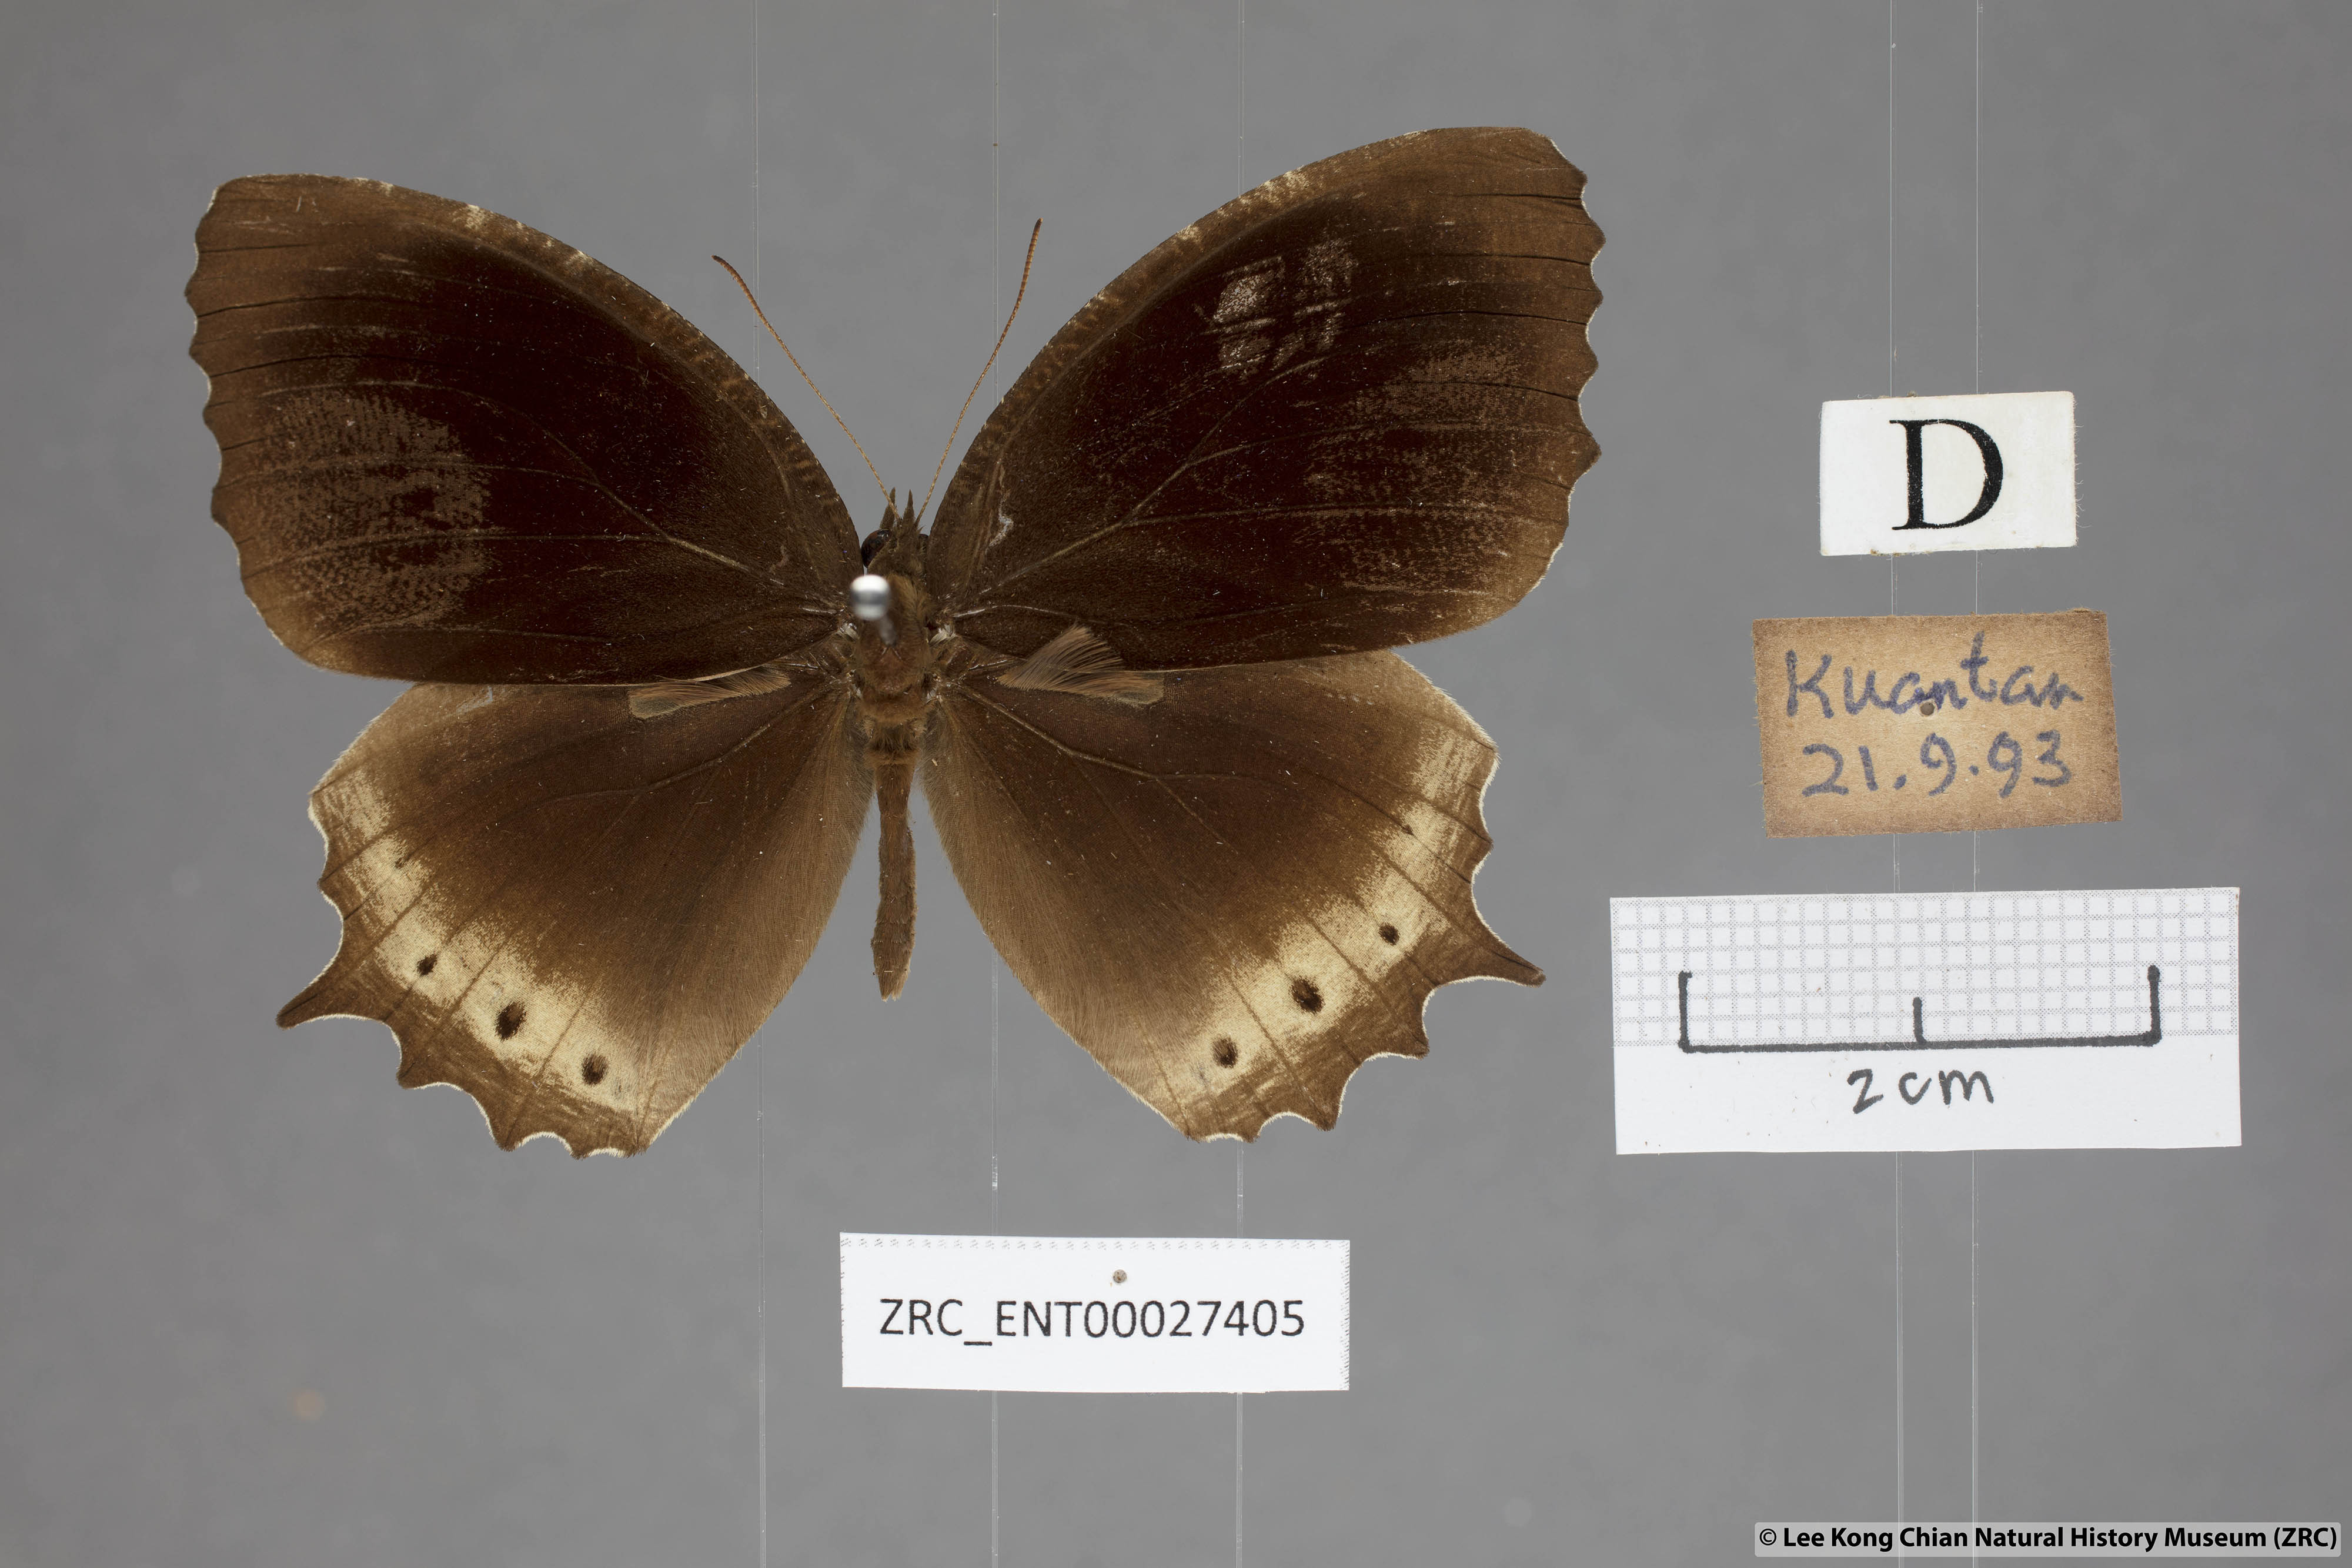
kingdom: Animalia
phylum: Arthropoda
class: Insecta
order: Lepidoptera
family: Nymphalidae
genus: Elymnias
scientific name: Elymnias panthera
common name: Tawny palmfly
